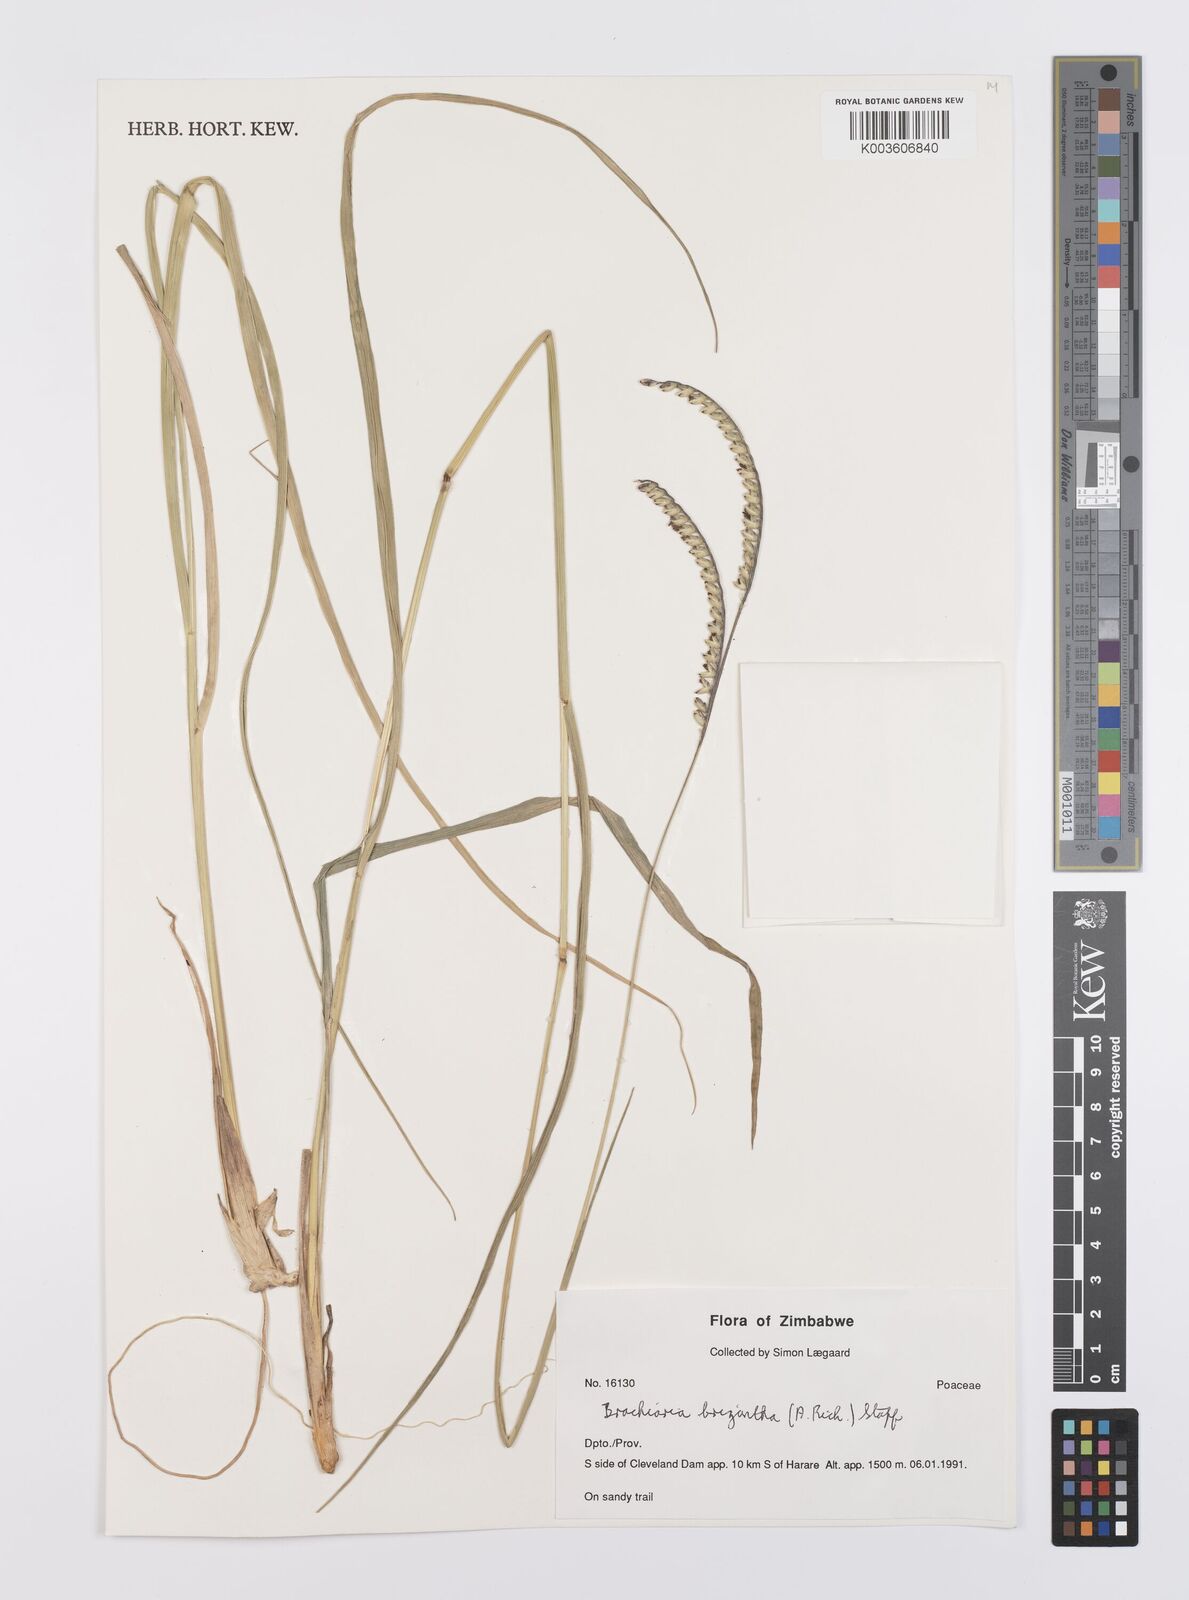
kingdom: Plantae
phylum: Tracheophyta
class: Liliopsida
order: Poales
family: Poaceae
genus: Urochloa
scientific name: Urochloa brizantha
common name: Palisade signalgrass
